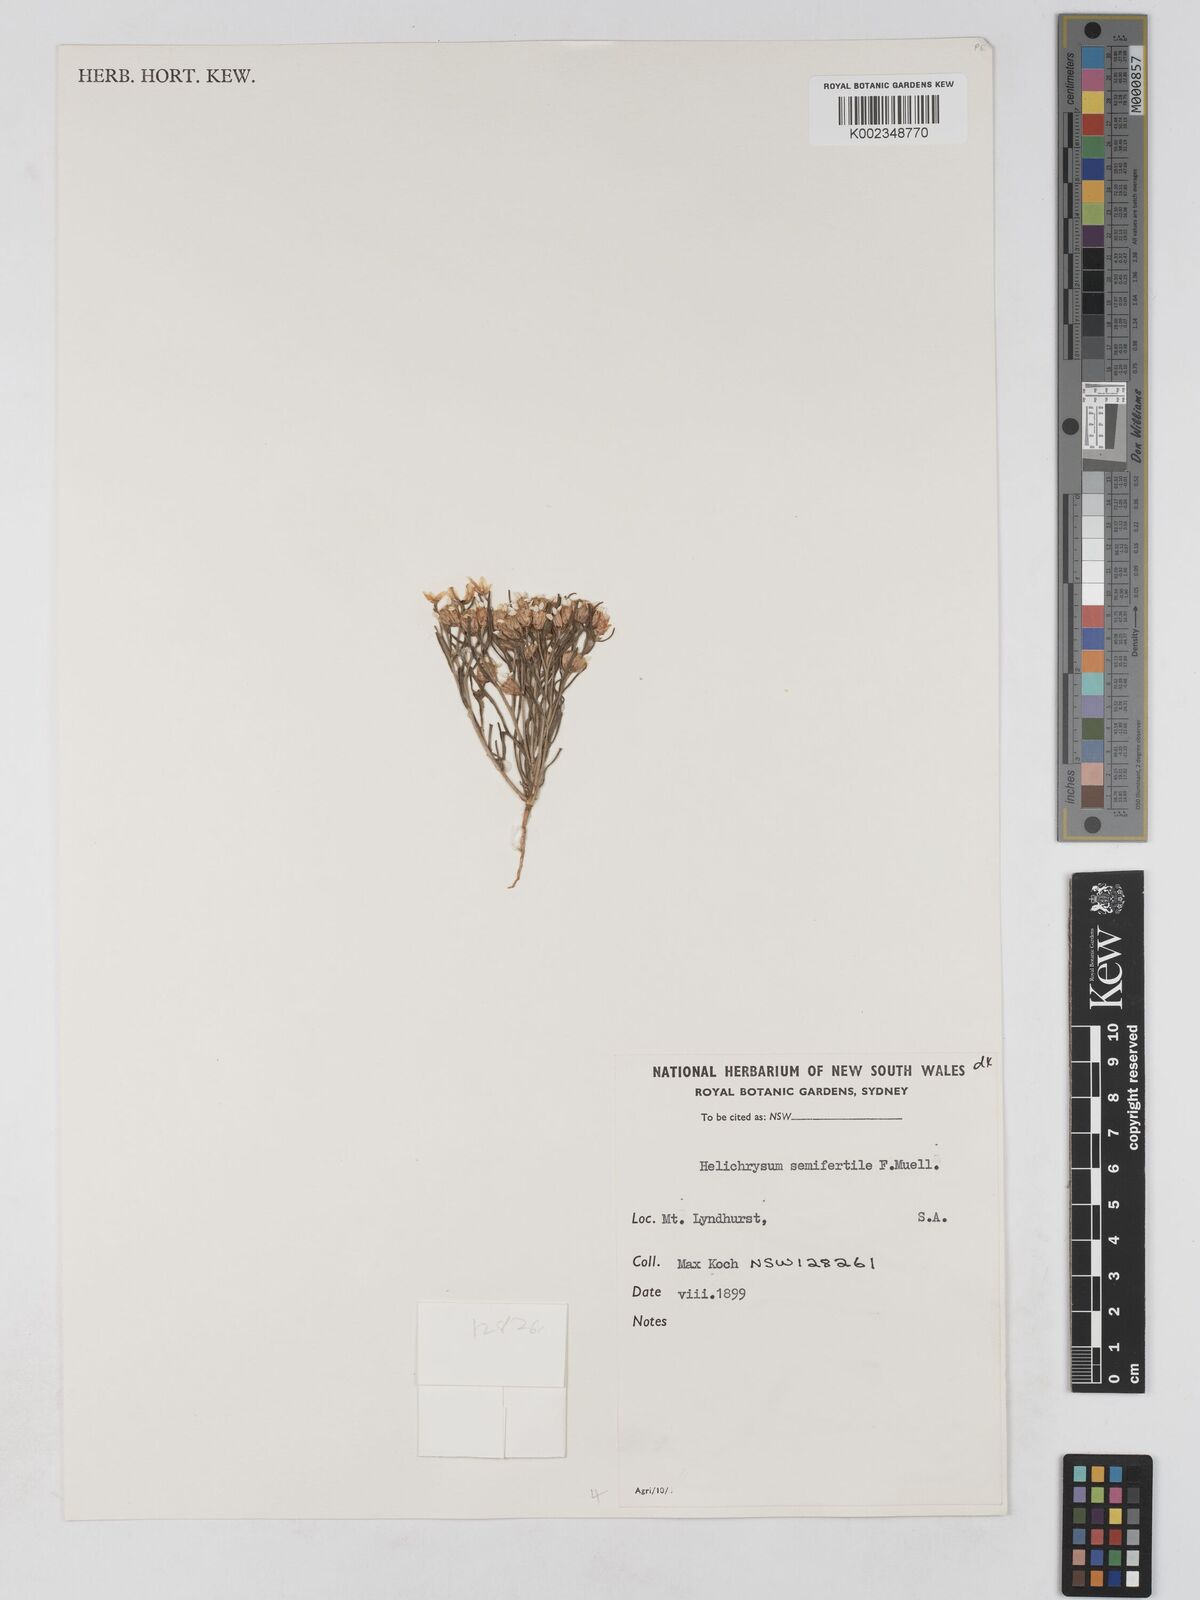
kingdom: Plantae
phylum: Tracheophyta
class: Magnoliopsida
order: Asterales
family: Asteraceae
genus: Schoenia
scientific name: Schoenia ramosissima
